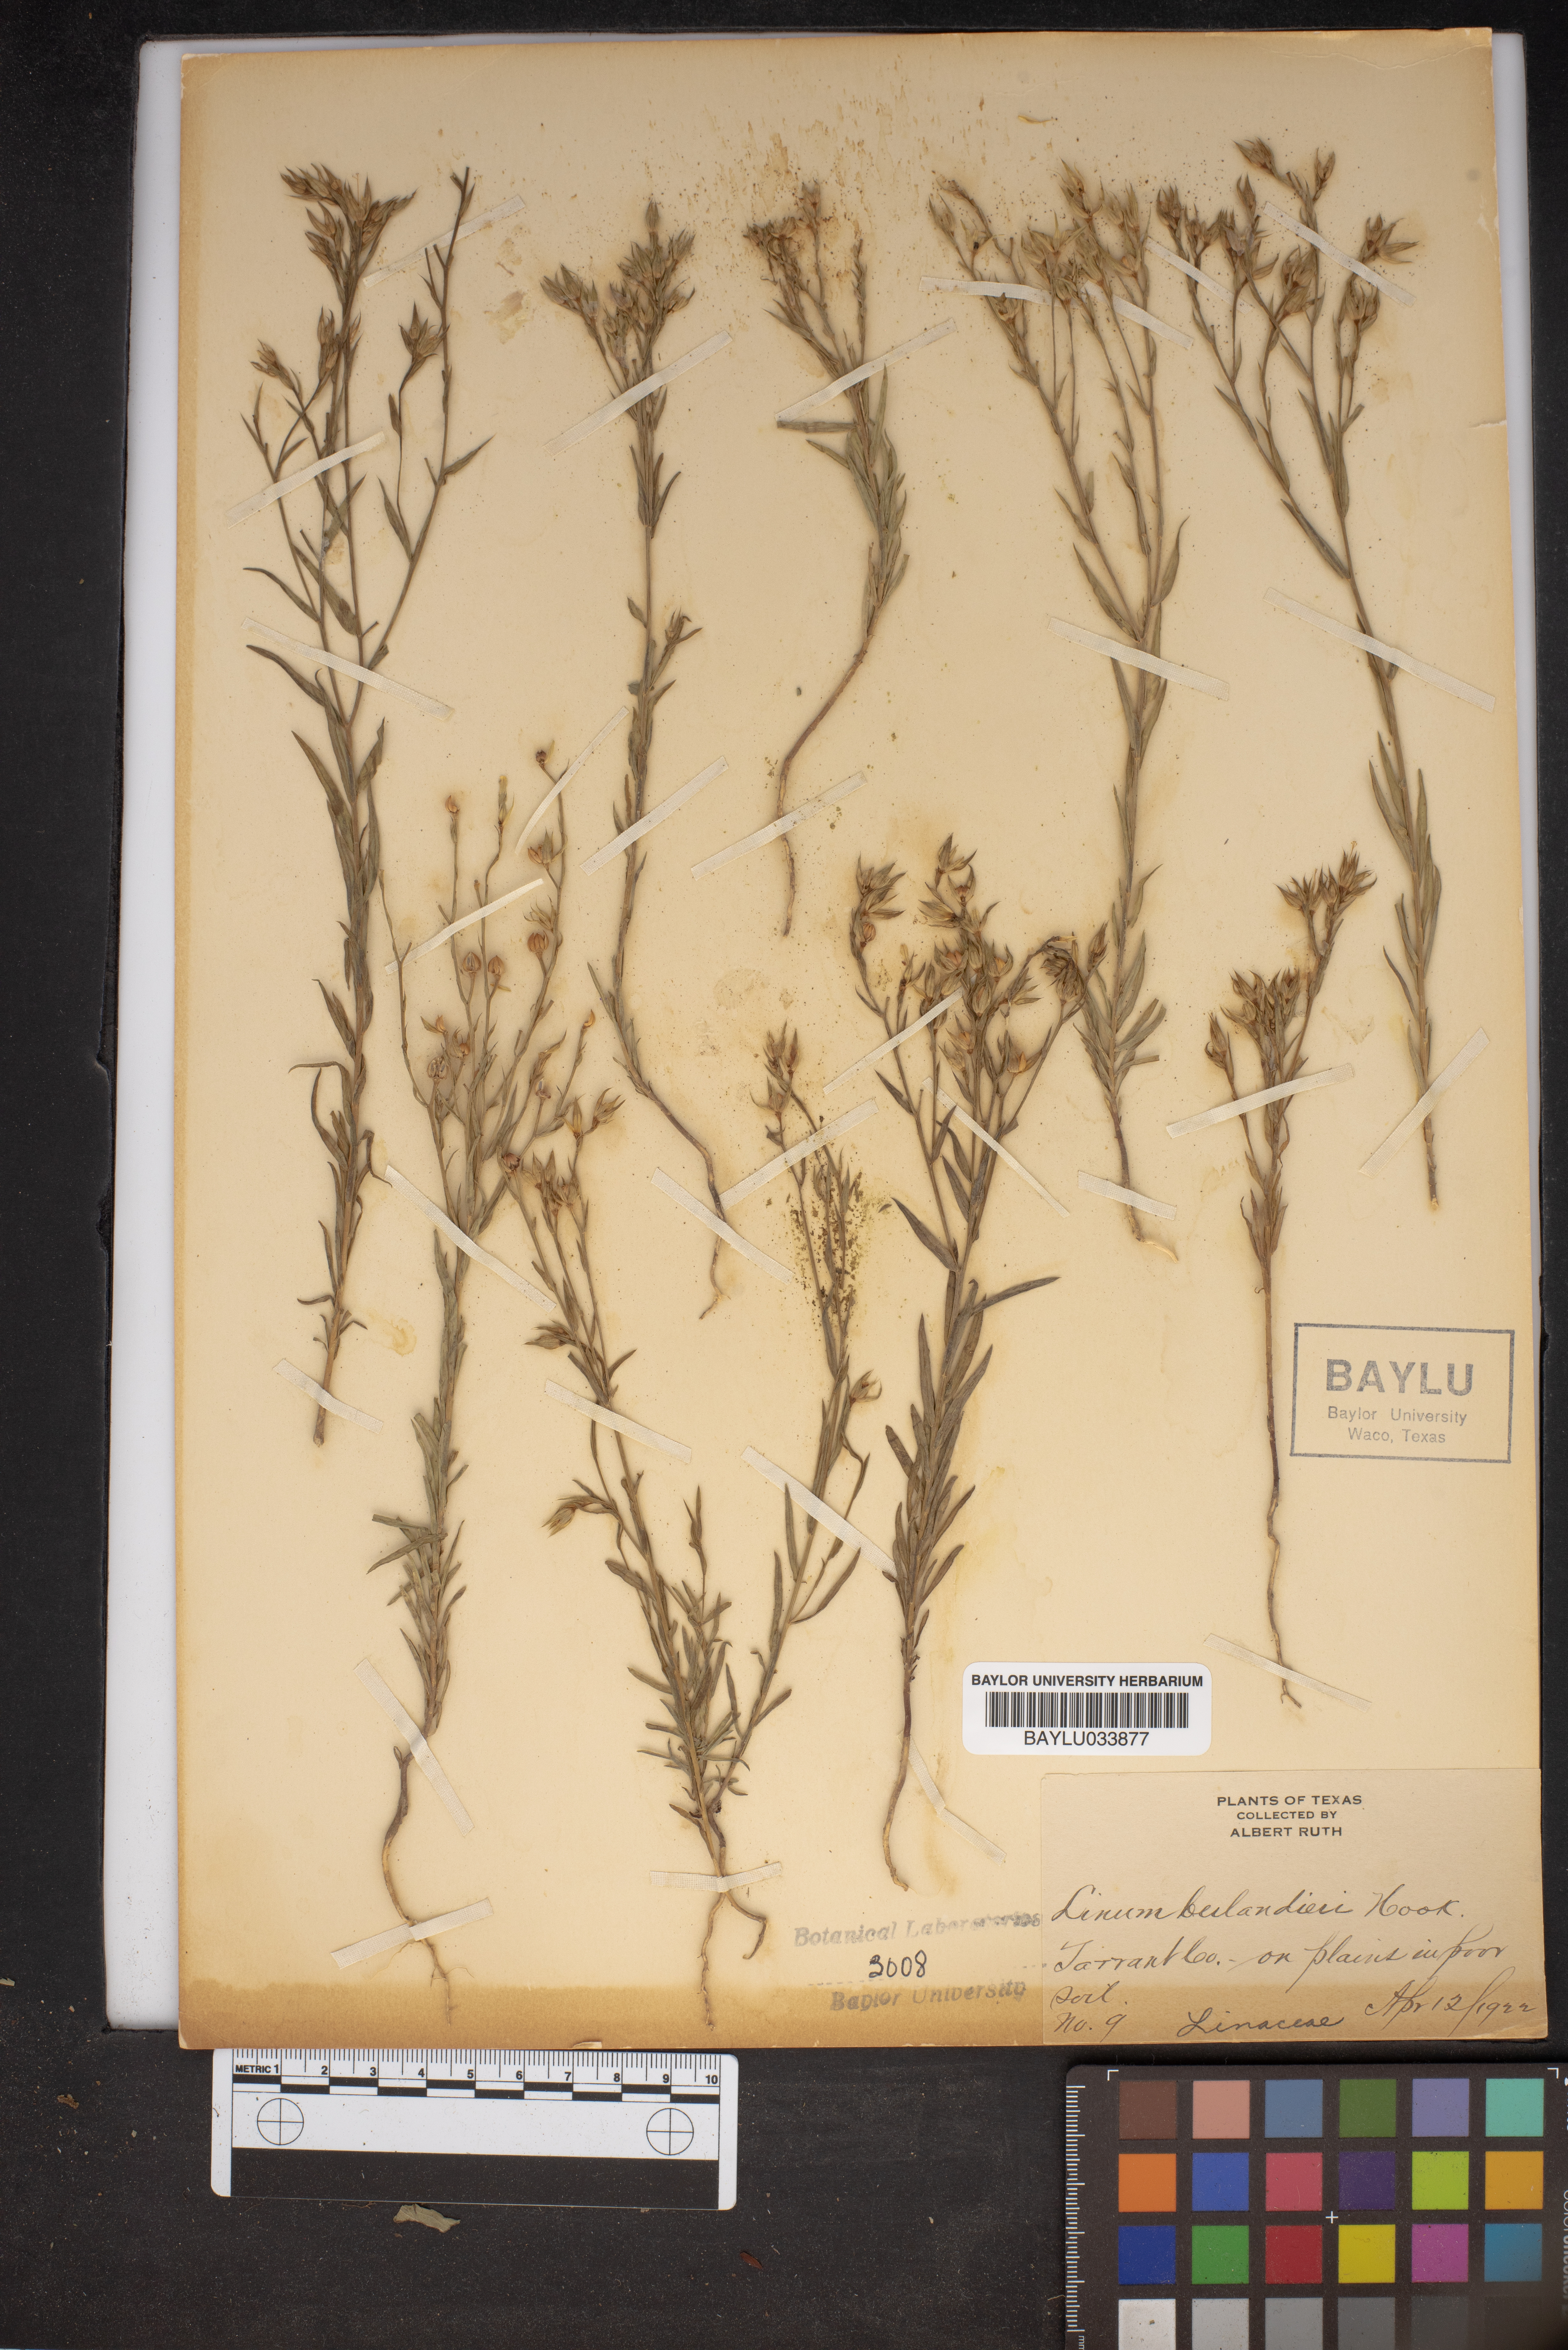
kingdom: Plantae
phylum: Tracheophyta
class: Magnoliopsida
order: Malpighiales
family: Linaceae
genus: Linum
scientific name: Linum berlandieri
